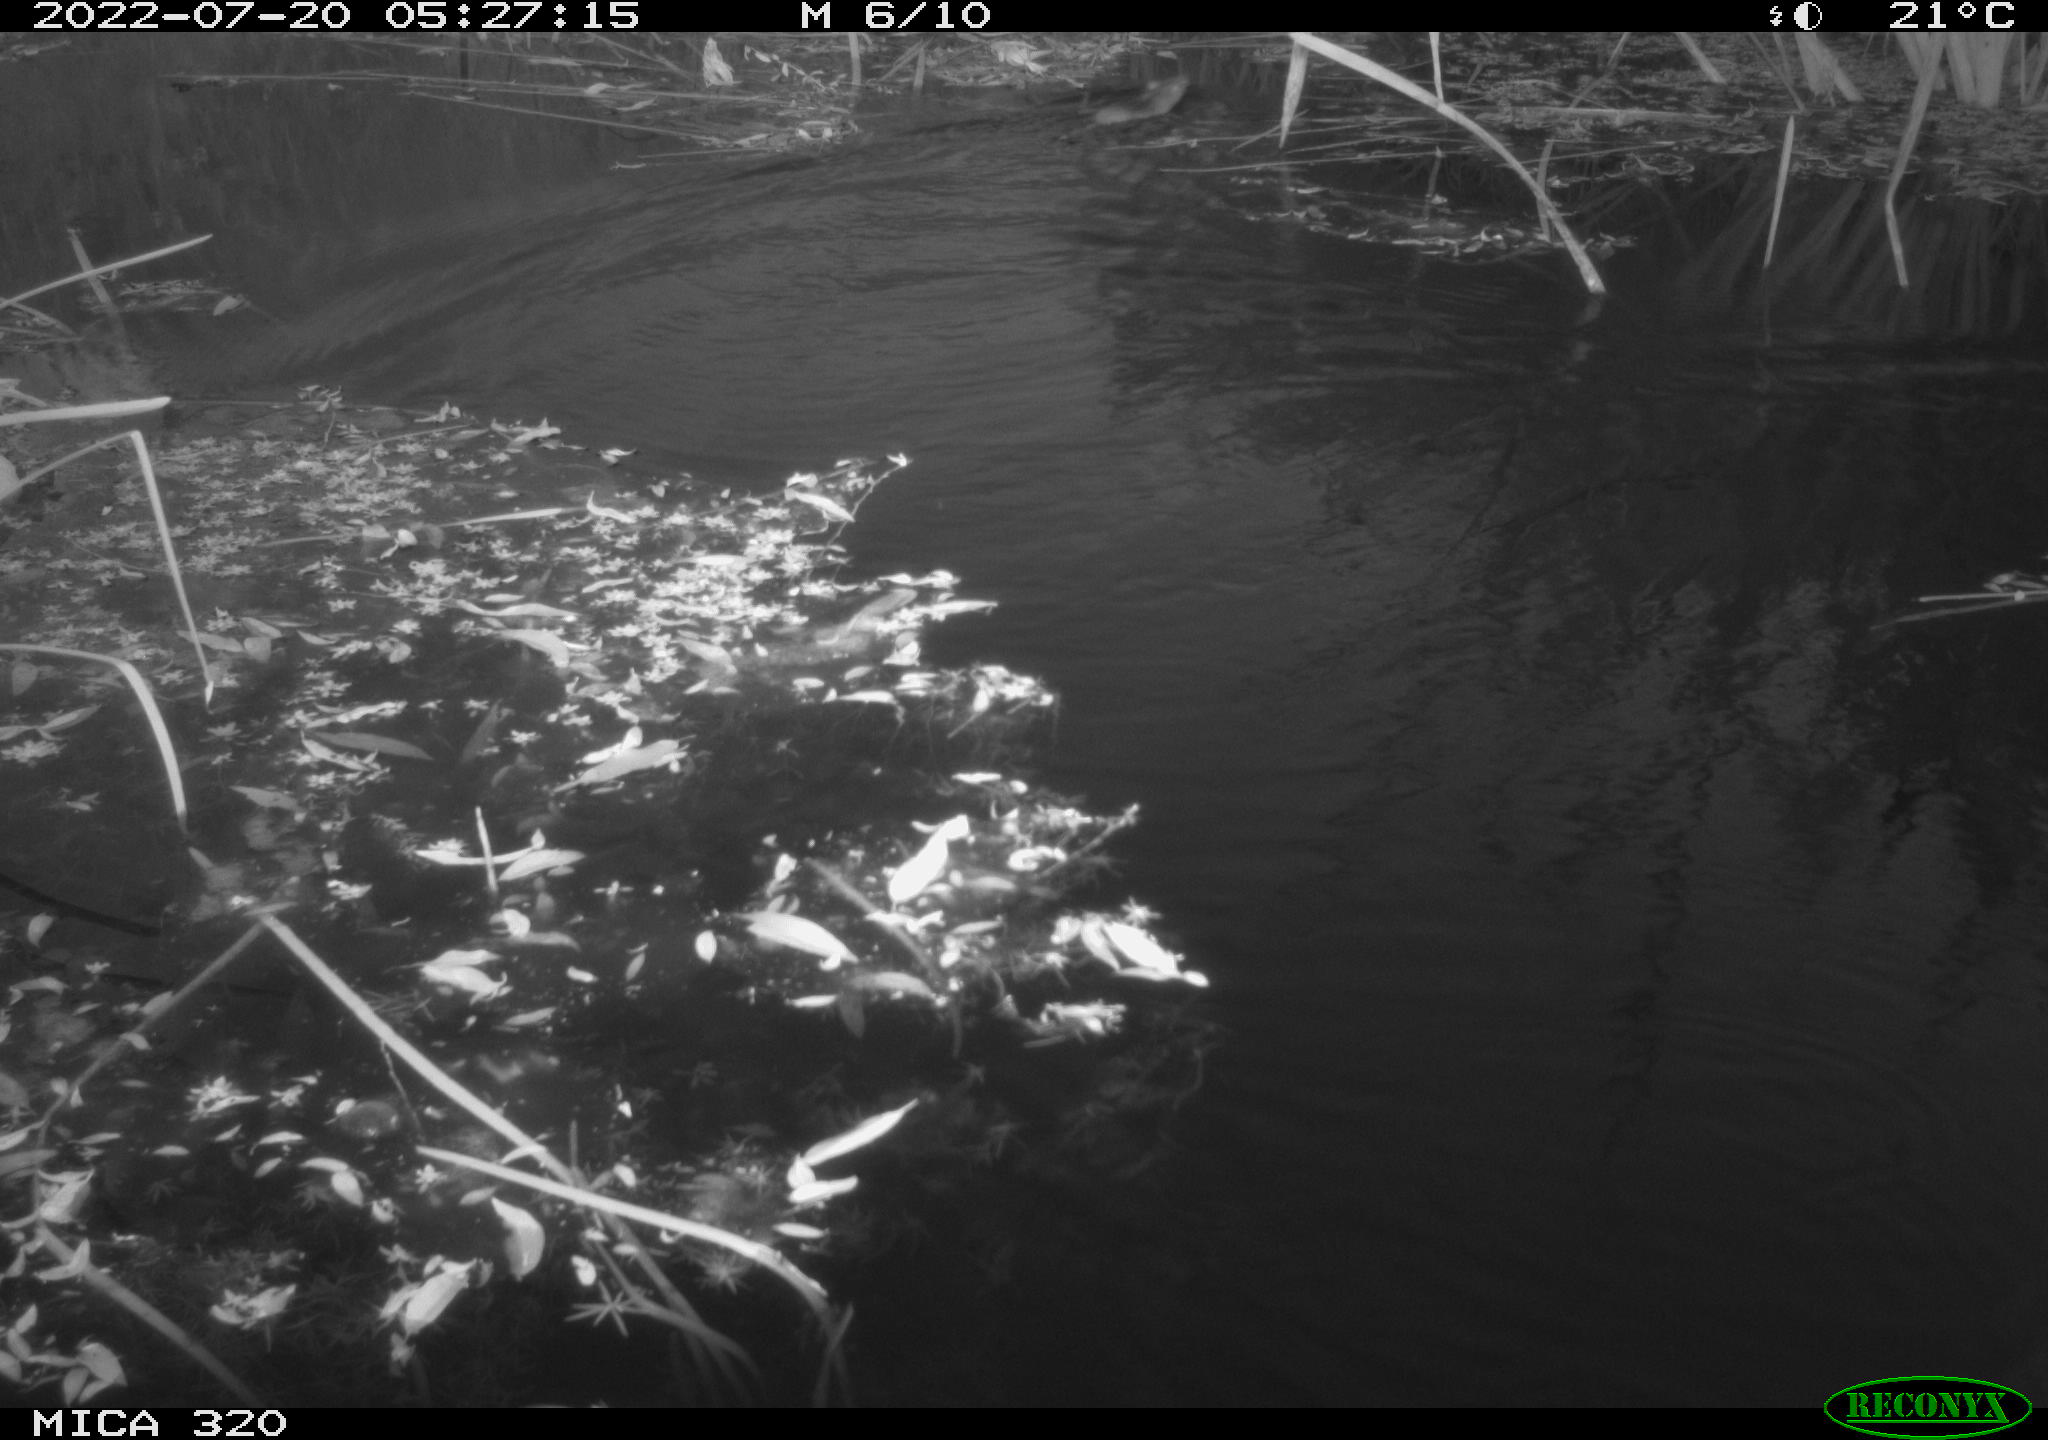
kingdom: Animalia
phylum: Chordata
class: Mammalia
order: Rodentia
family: Muridae
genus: Rattus
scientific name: Rattus norvegicus
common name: Brown rat
